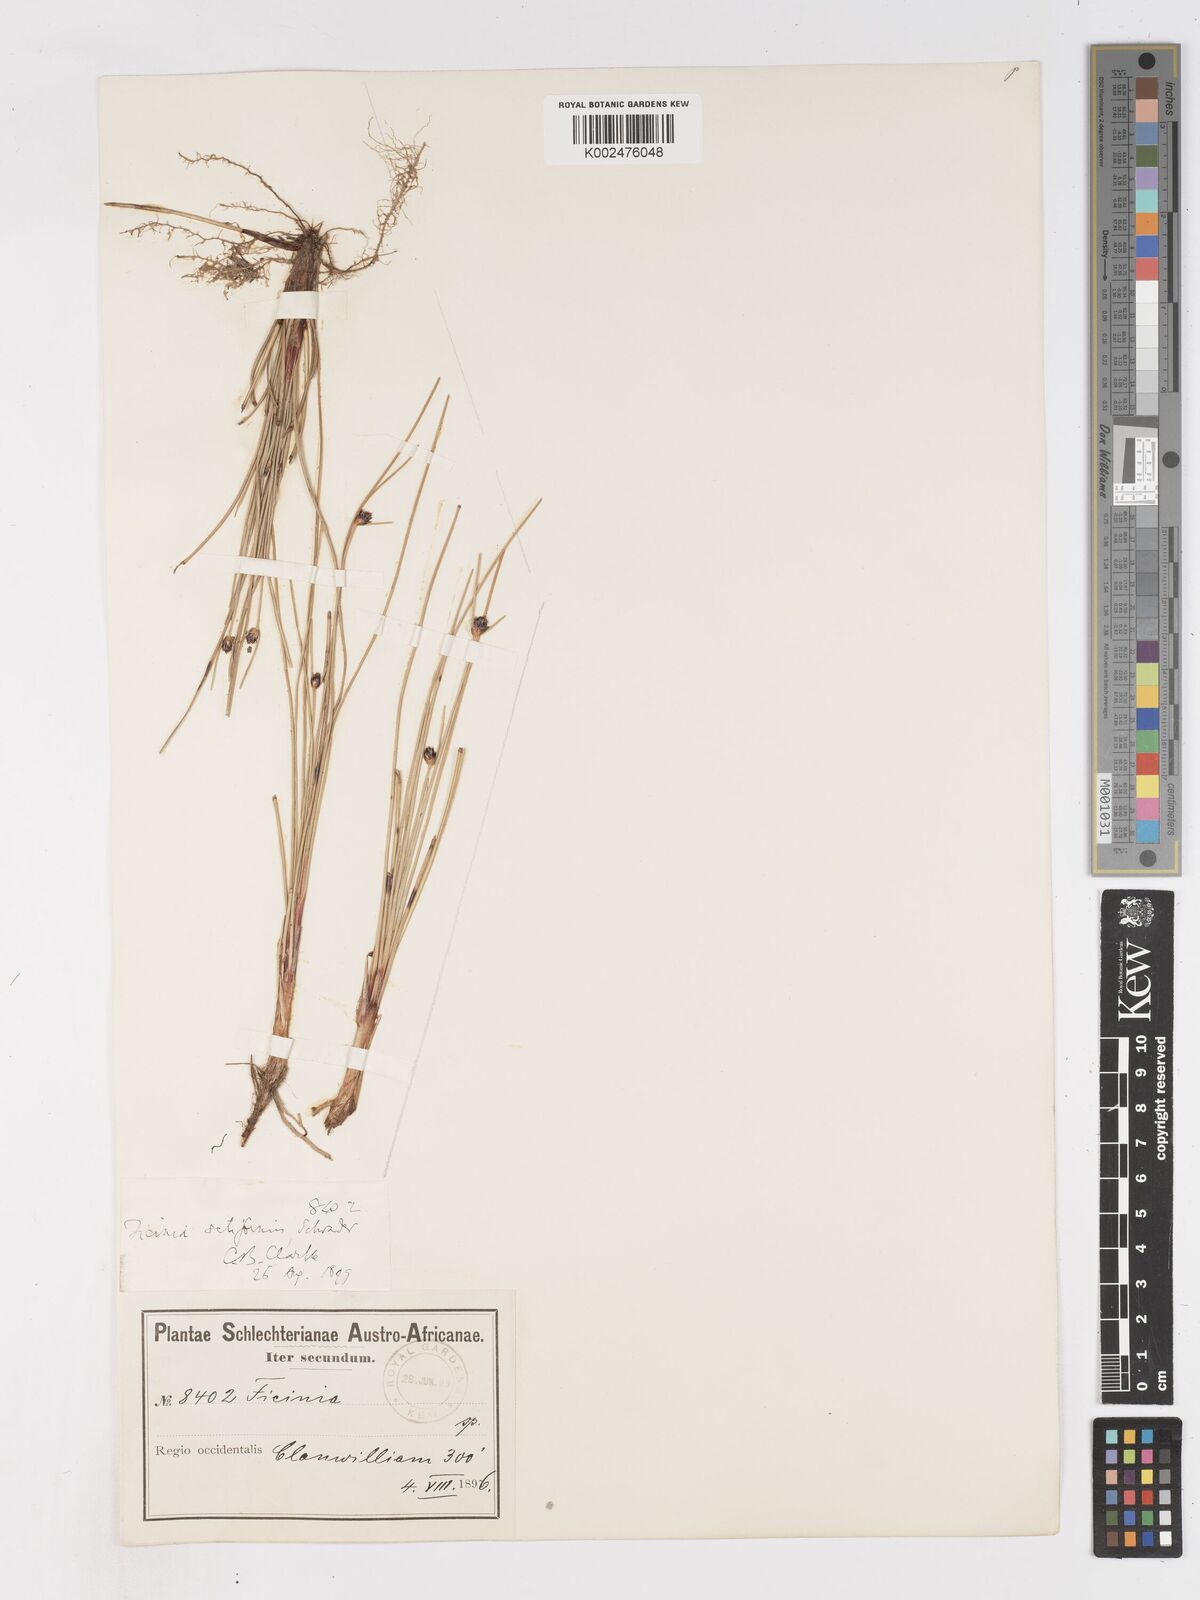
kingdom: Plantae
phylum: Tracheophyta
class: Liliopsida
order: Poales
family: Cyperaceae
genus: Ficinia
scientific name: Ficinia indica
